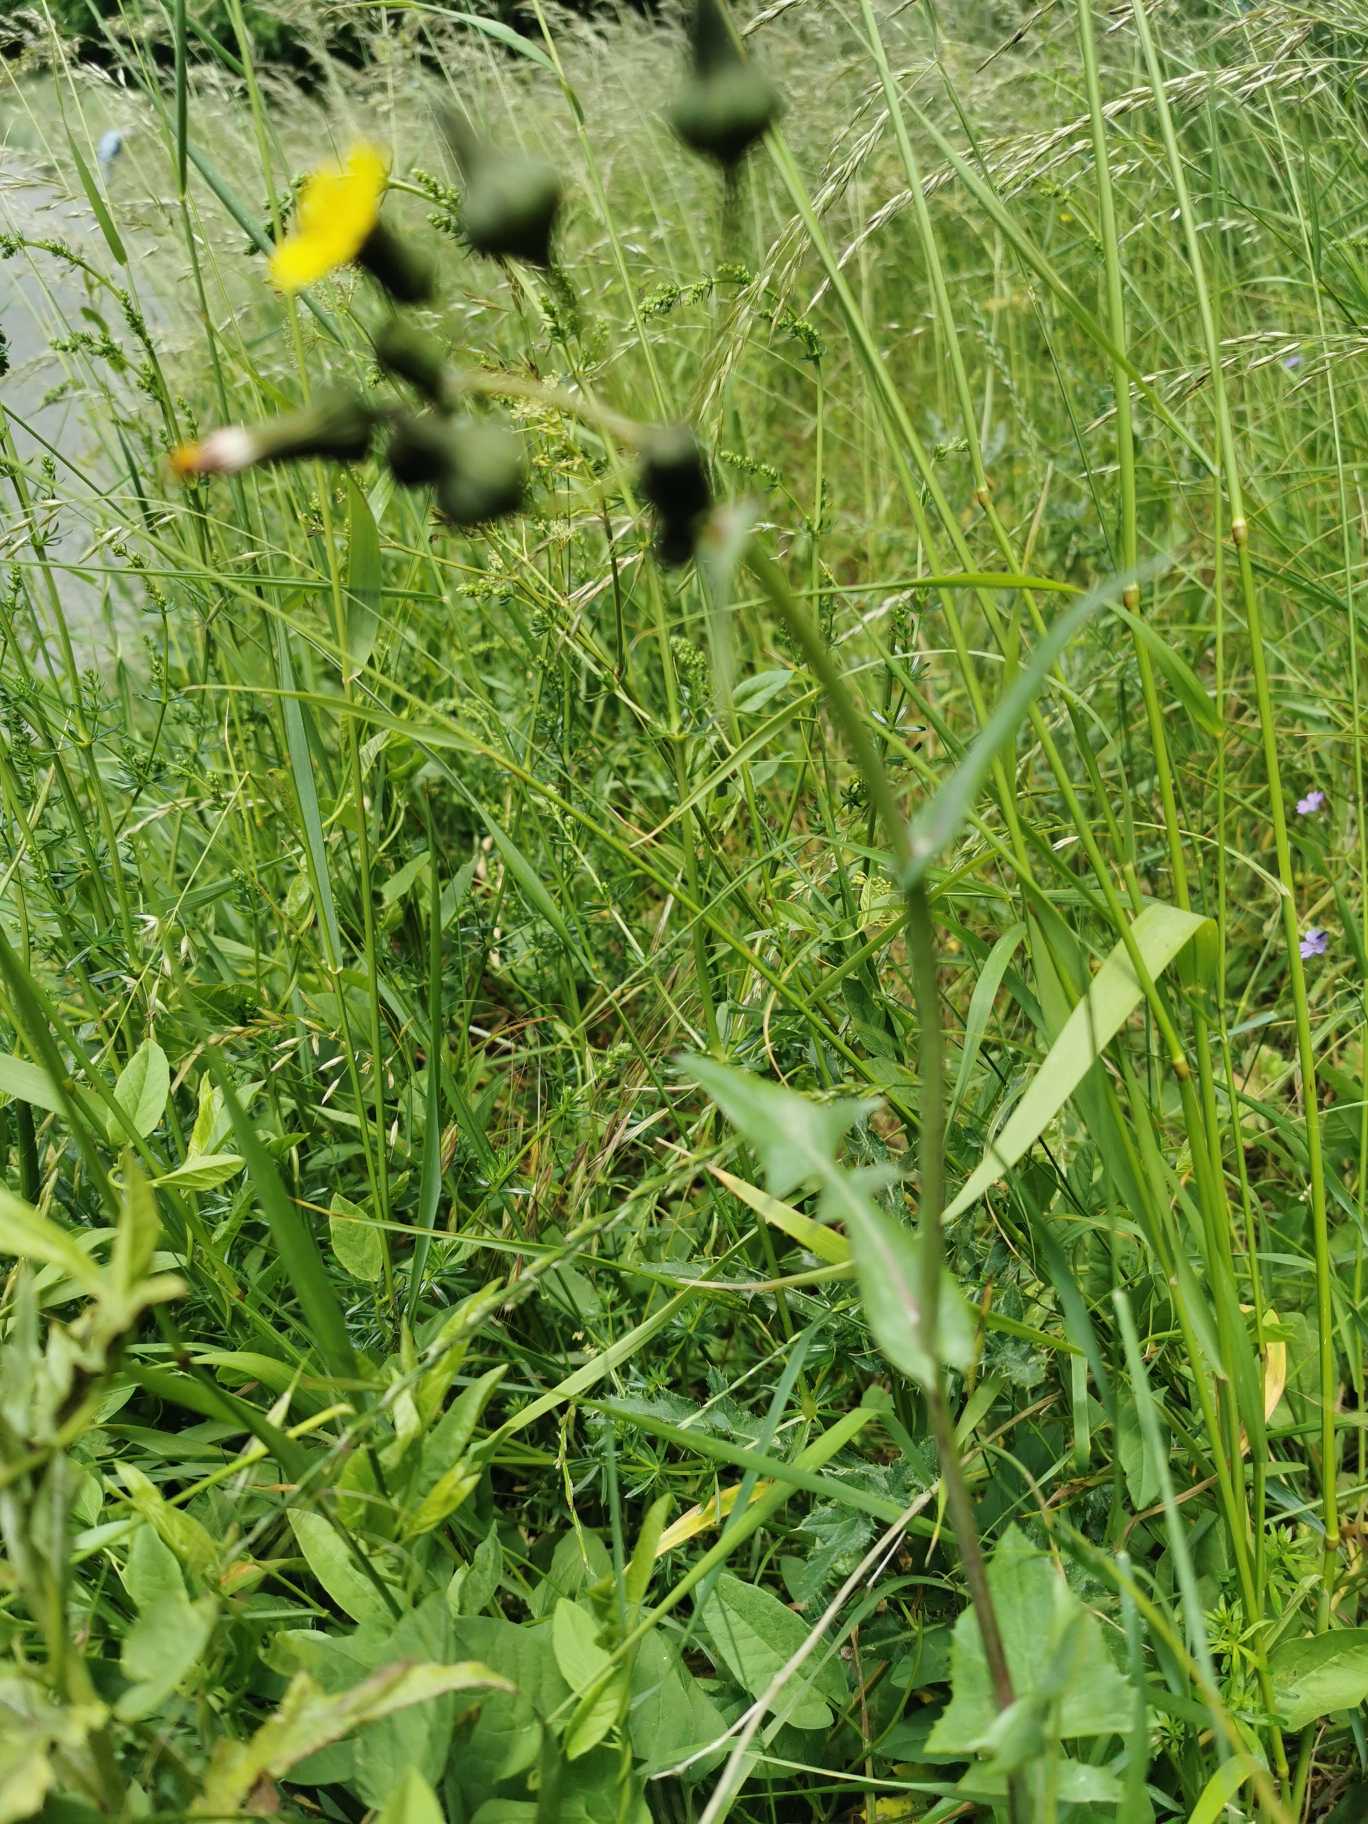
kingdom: Plantae
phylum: Tracheophyta
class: Magnoliopsida
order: Asterales
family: Asteraceae
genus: Sonchus
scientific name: Sonchus oleraceus
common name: Almindelig svinemælk
